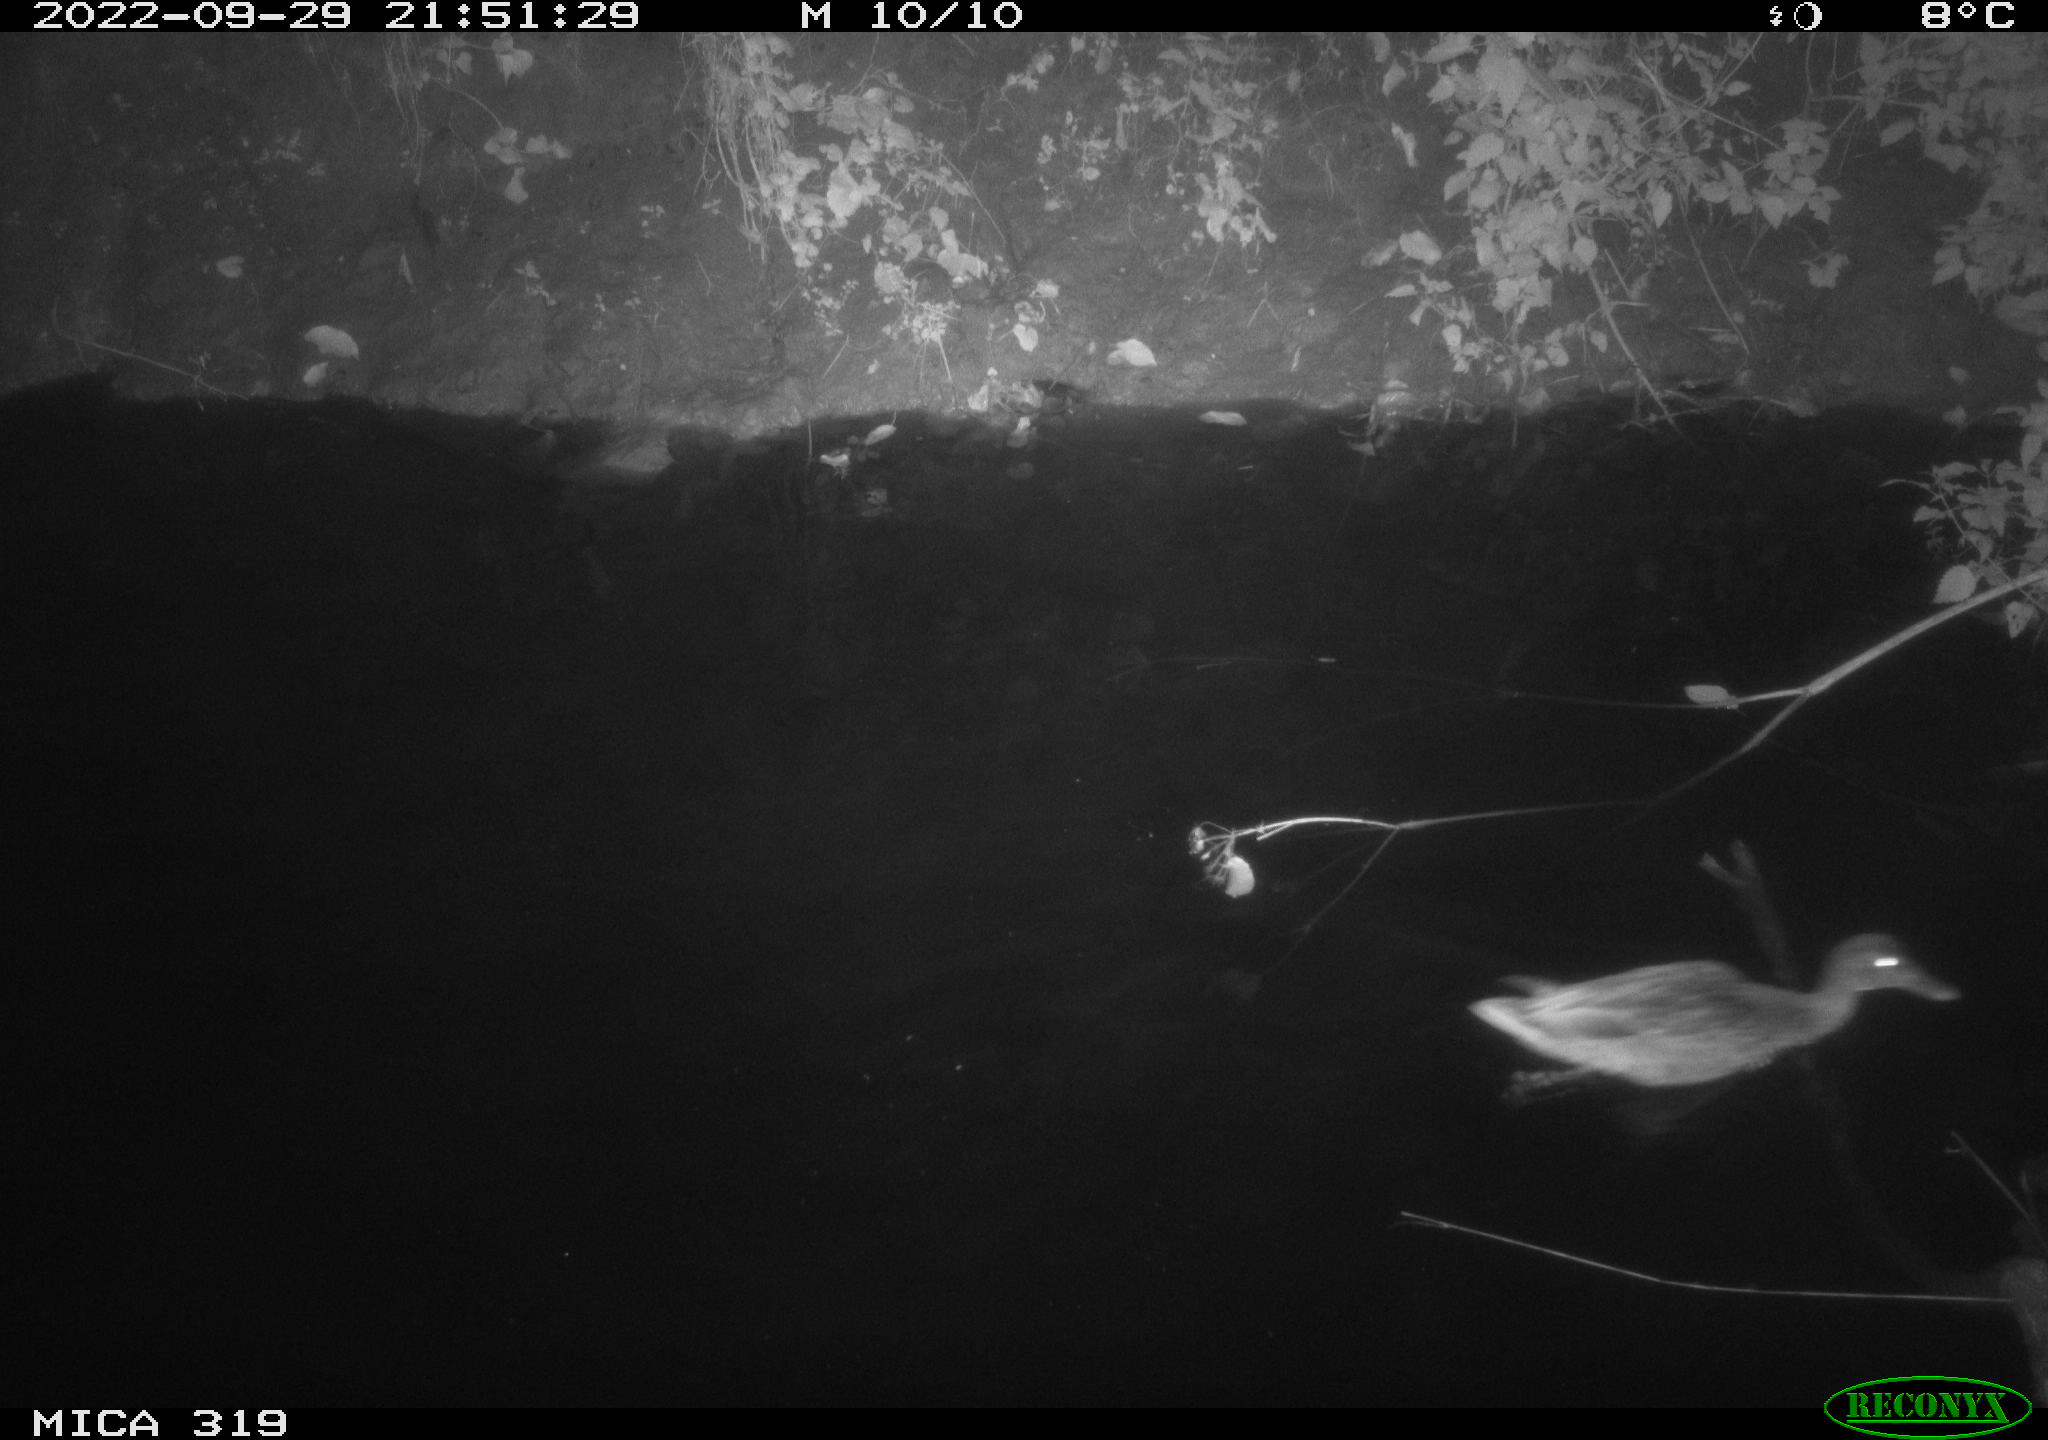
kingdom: Animalia
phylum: Chordata
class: Aves
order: Anseriformes
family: Anatidae
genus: Anas
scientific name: Anas
